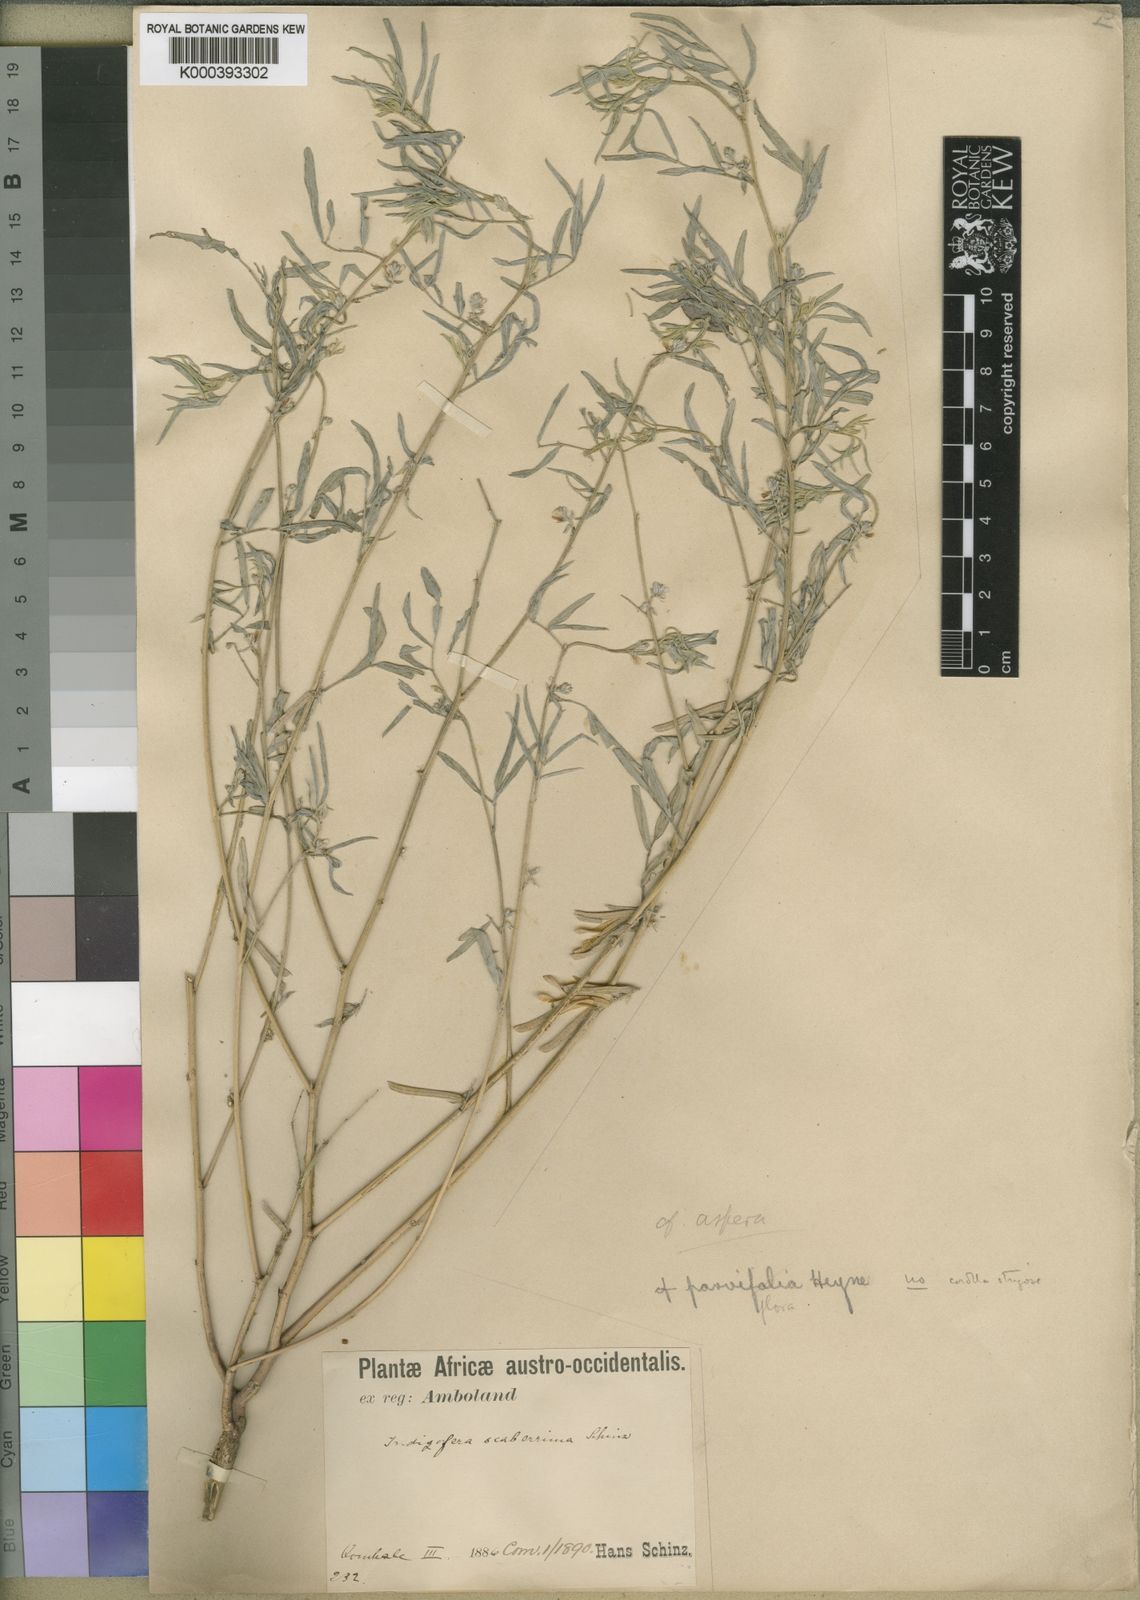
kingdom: Plantae
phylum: Tracheophyta
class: Magnoliopsida
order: Fabales
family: Fabaceae
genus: Indigofera
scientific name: Indigofera charlieriana
